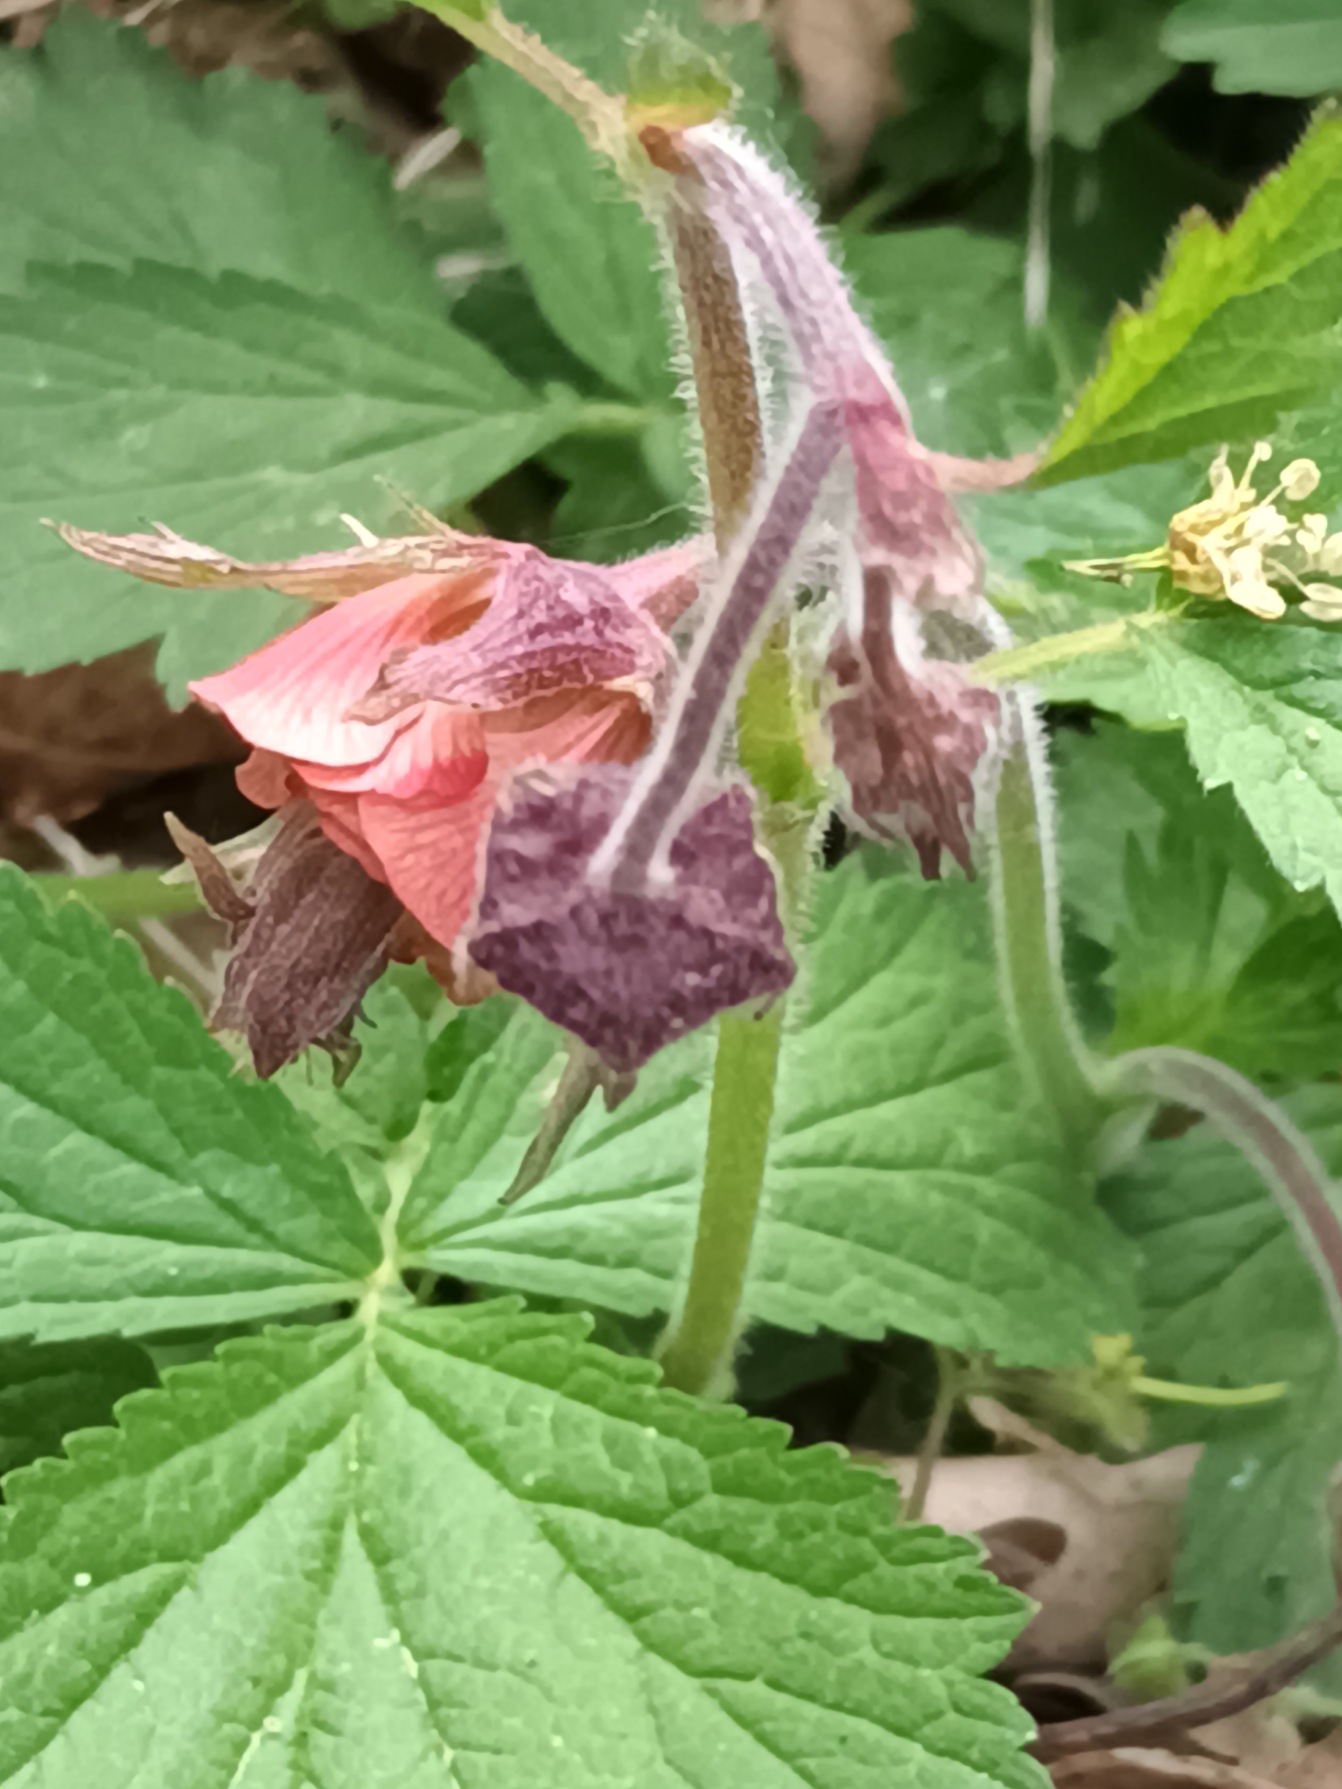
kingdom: Plantae
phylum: Tracheophyta
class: Magnoliopsida
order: Rosales
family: Rosaceae
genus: Geum
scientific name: Geum rivale
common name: Eng-nellikerod
